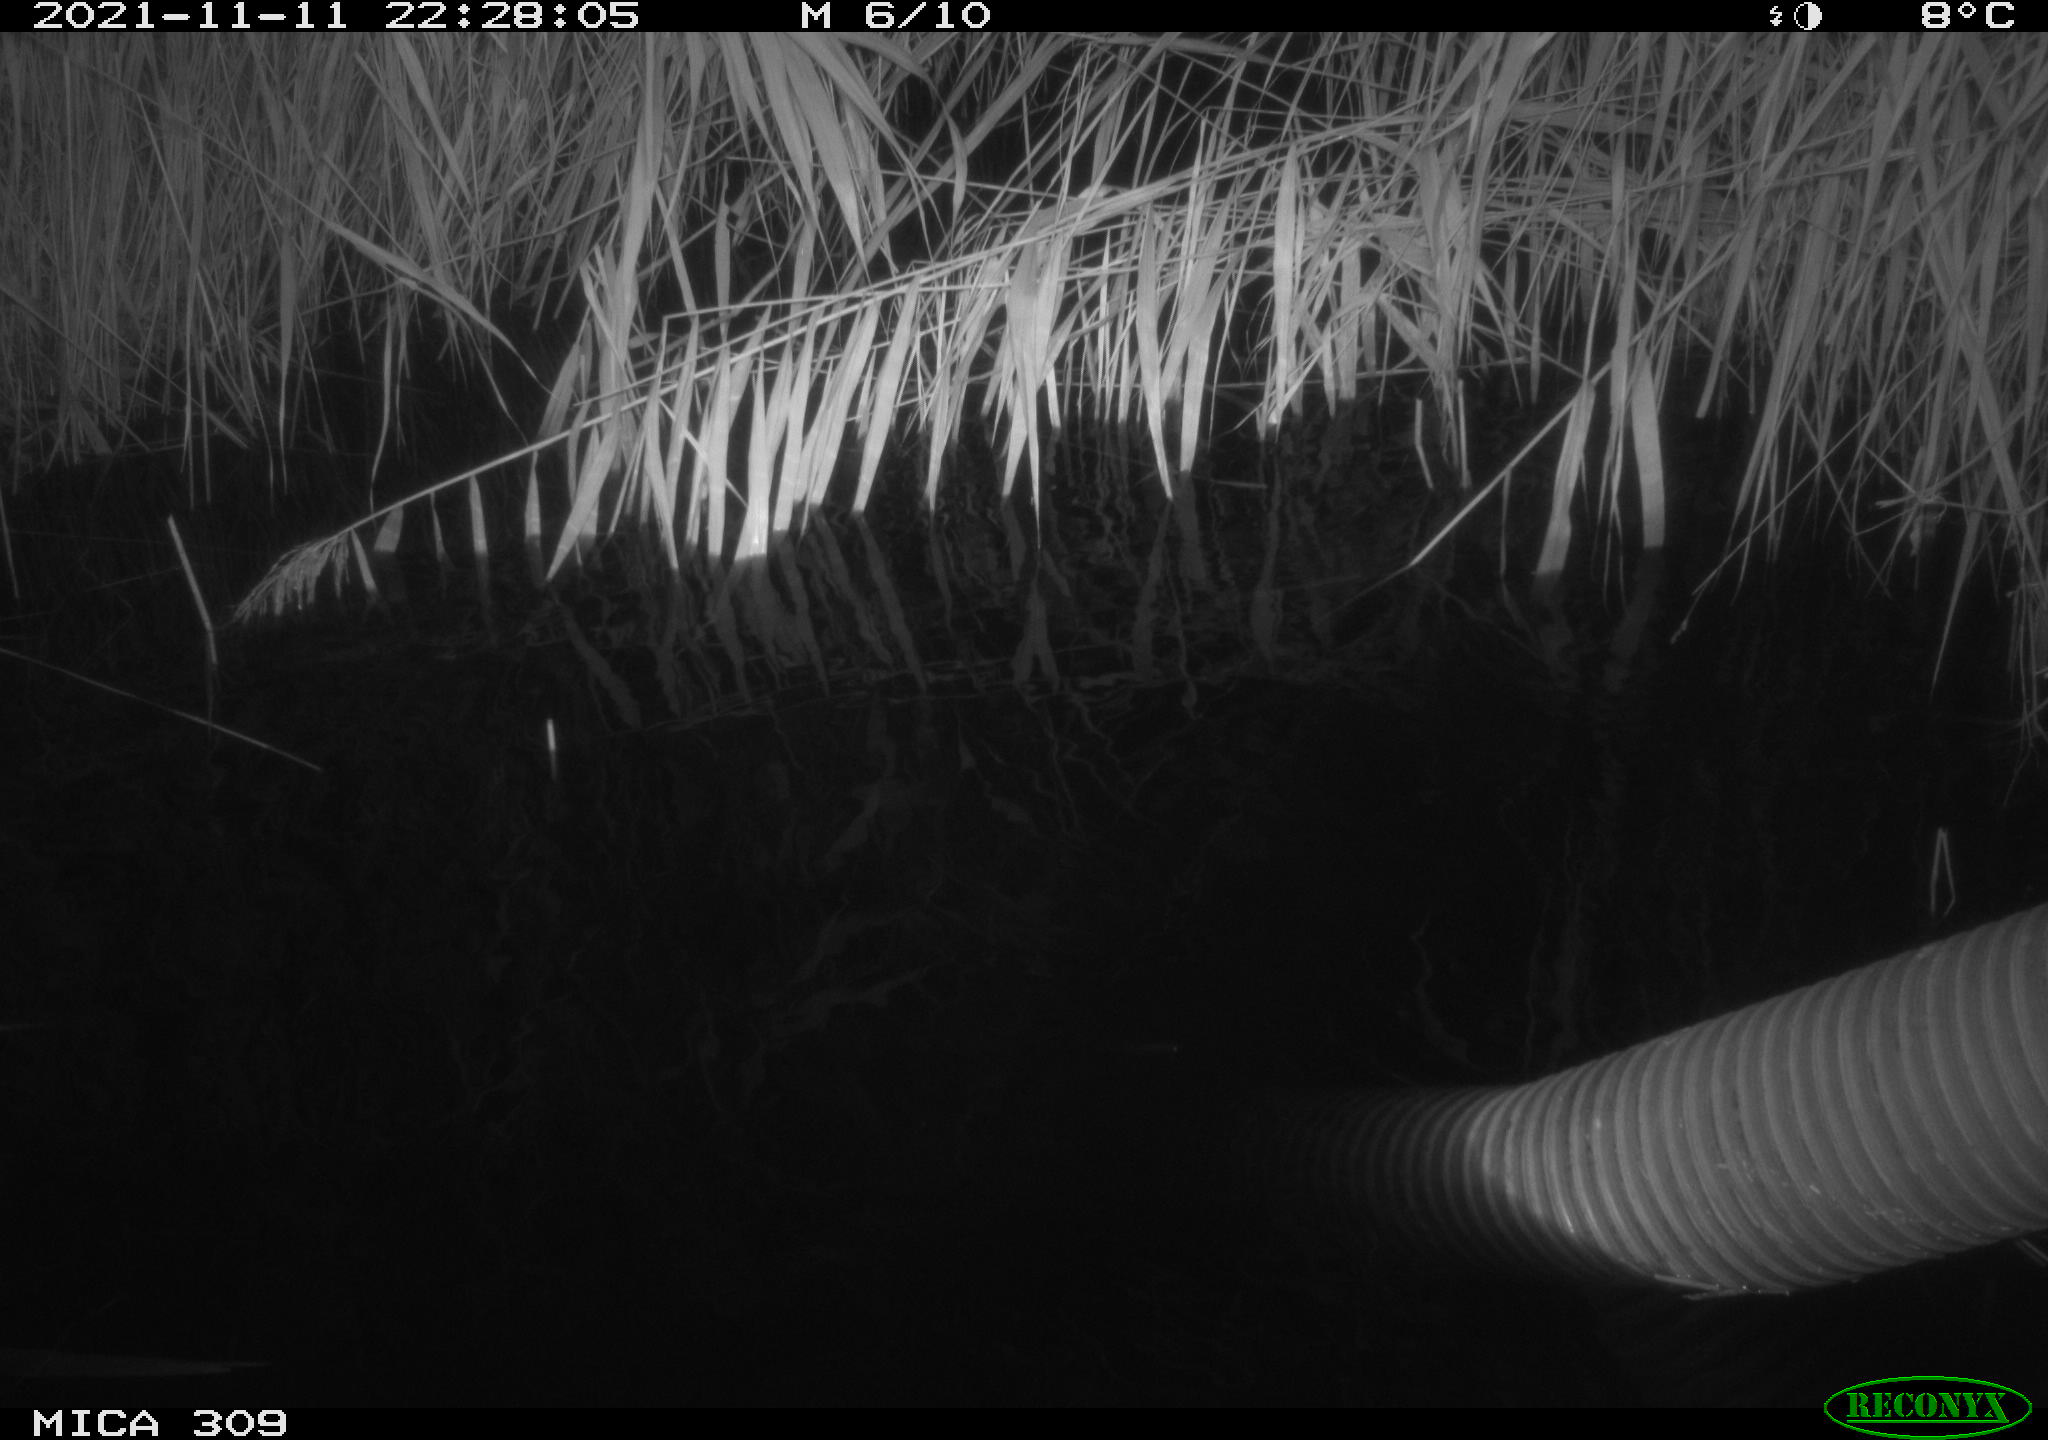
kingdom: Animalia
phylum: Chordata
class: Mammalia
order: Rodentia
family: Muridae
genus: Rattus
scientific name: Rattus norvegicus
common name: Brown rat
